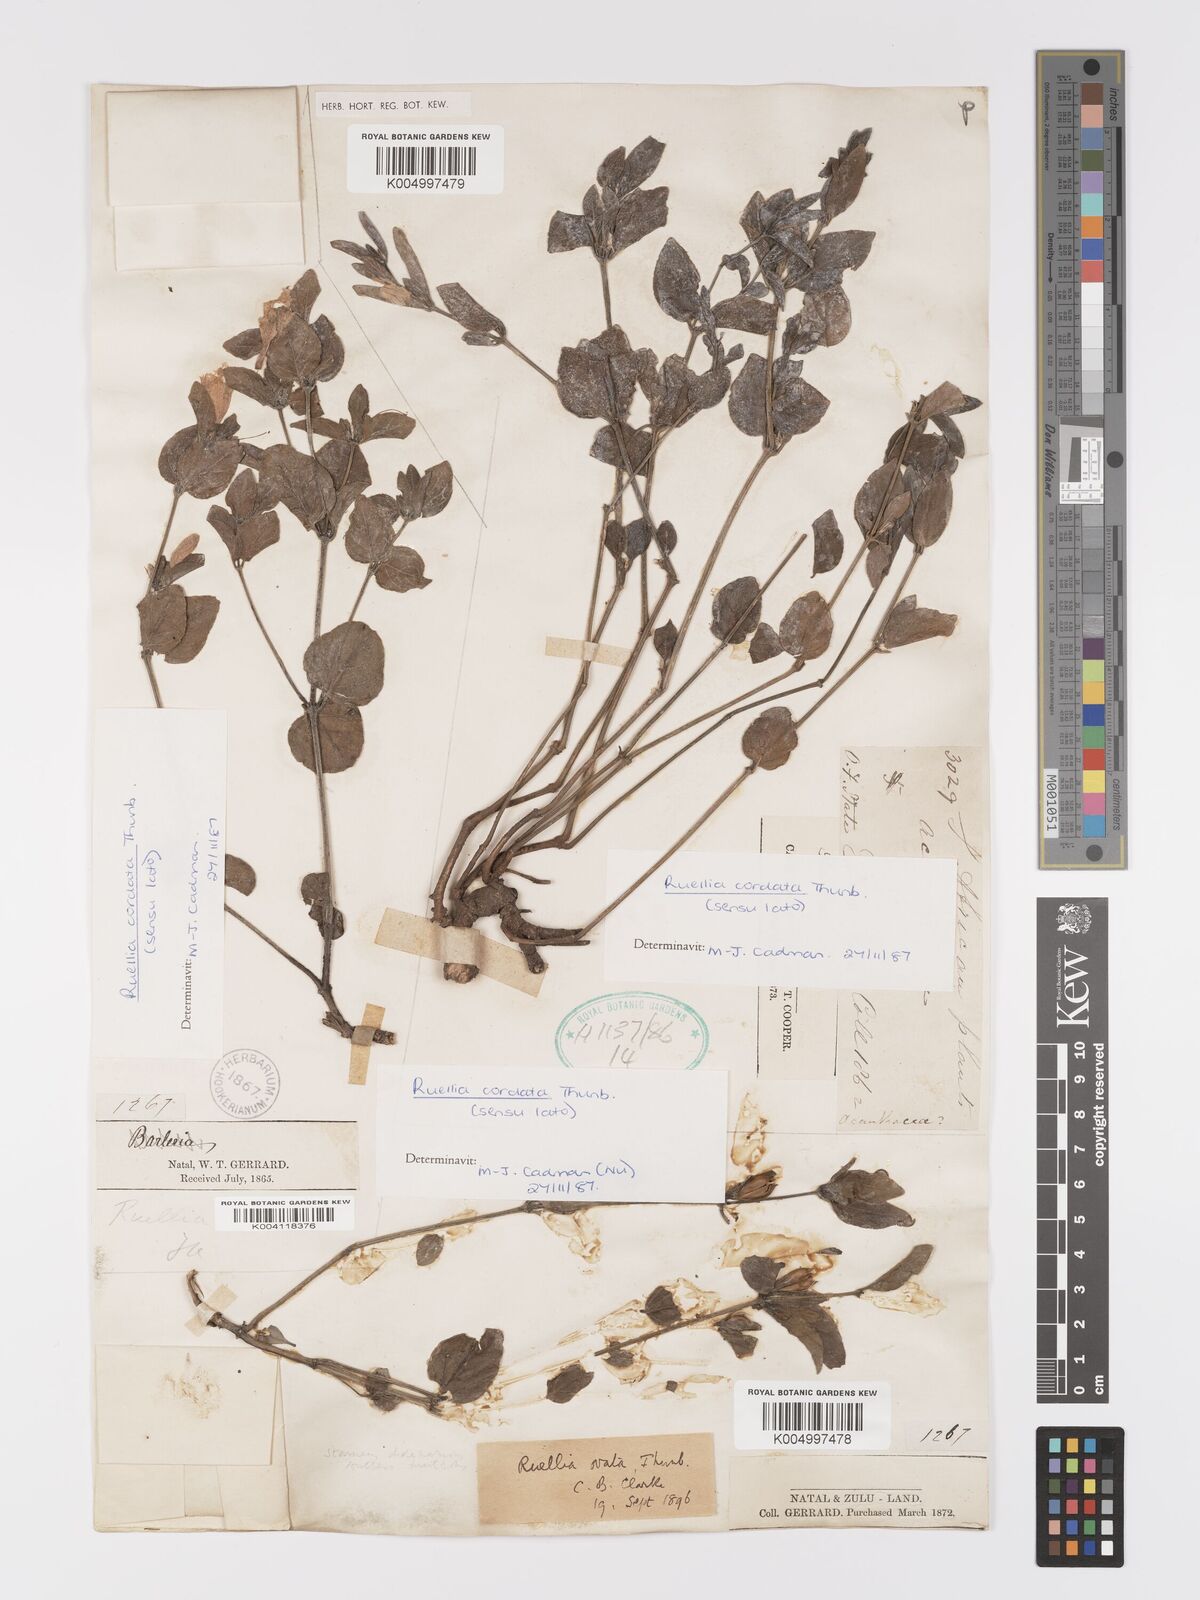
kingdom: Plantae
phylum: Tracheophyta
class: Magnoliopsida
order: Lamiales
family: Acanthaceae
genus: Ruellia
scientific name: Ruellia cordata
